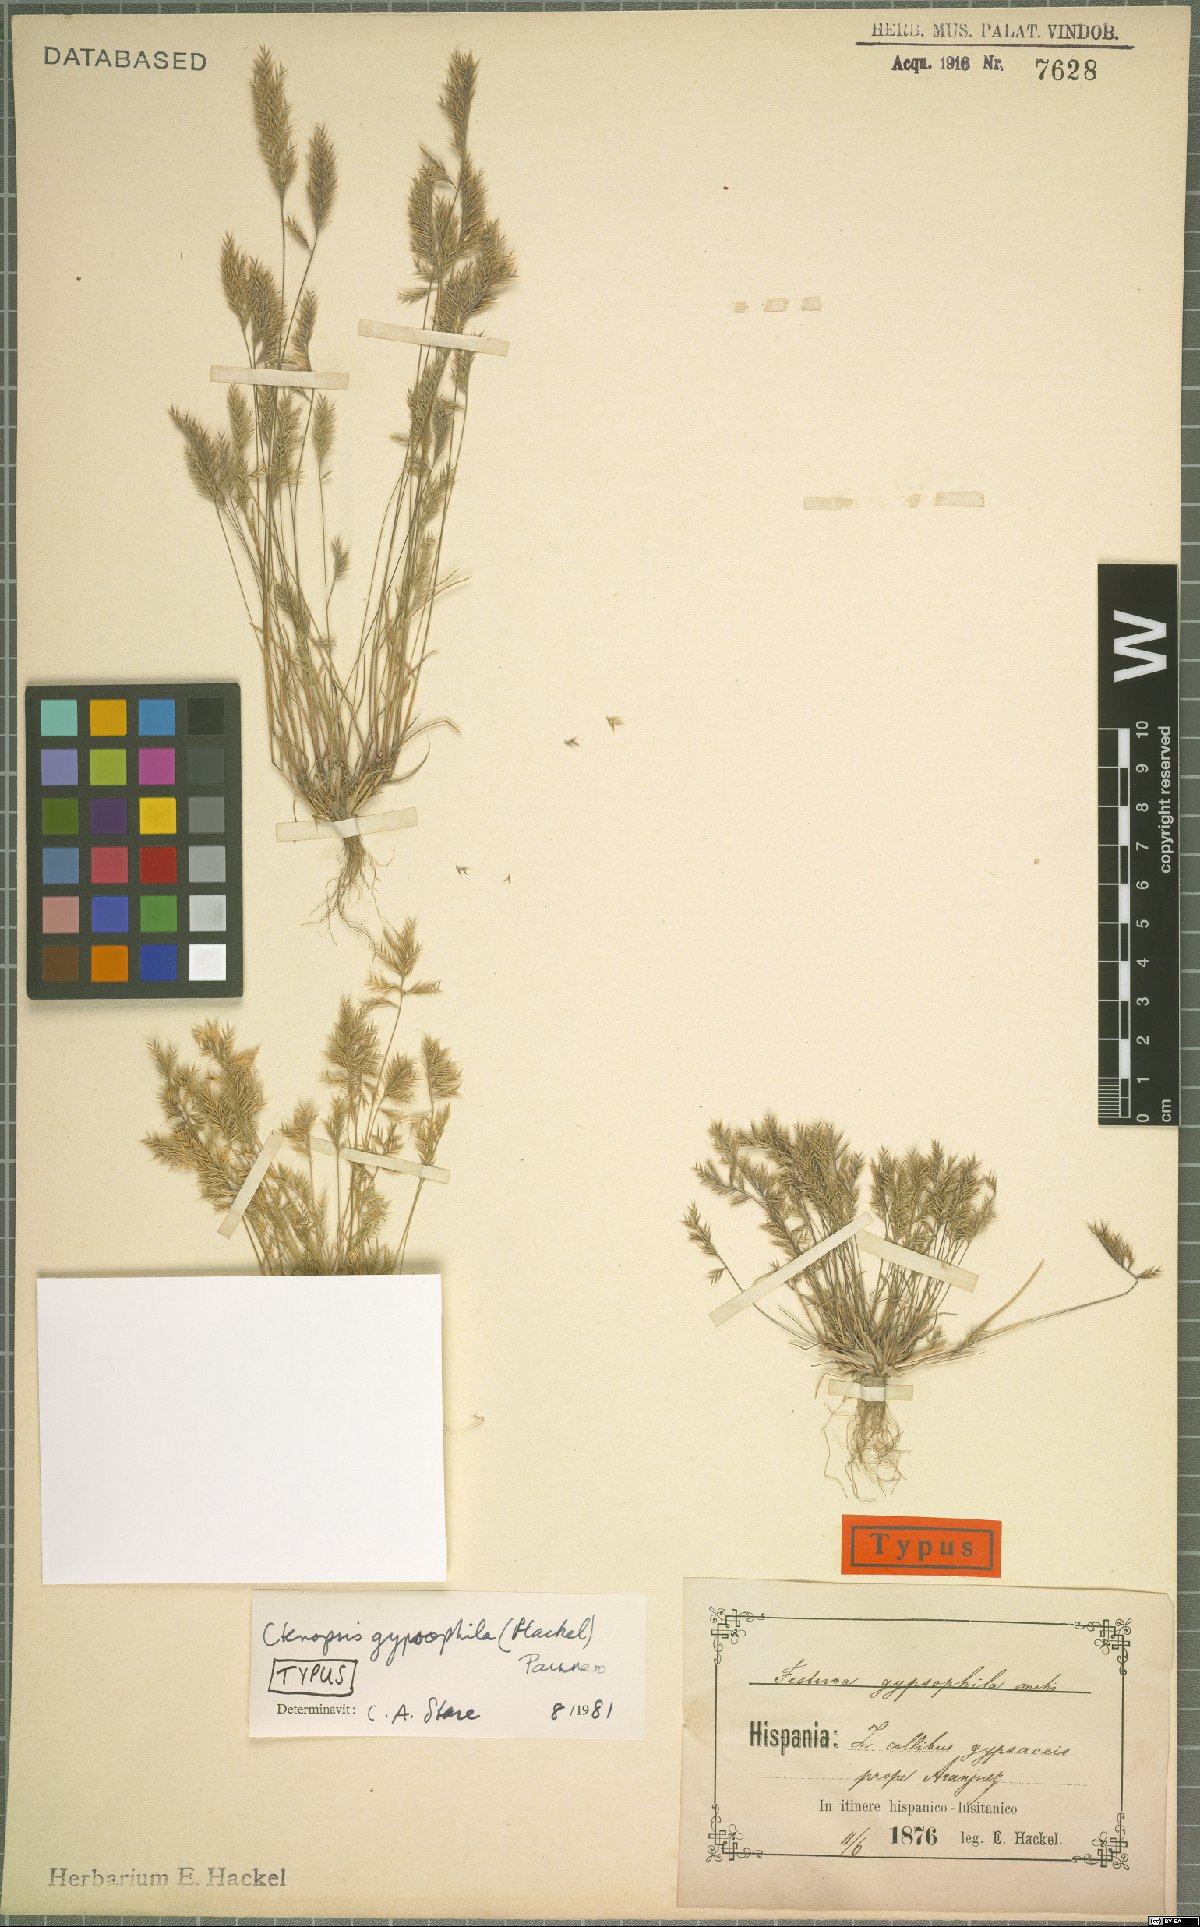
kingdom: Plantae
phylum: Tracheophyta
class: Liliopsida
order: Poales
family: Poaceae
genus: Festuca
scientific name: Festuca gypsophila
